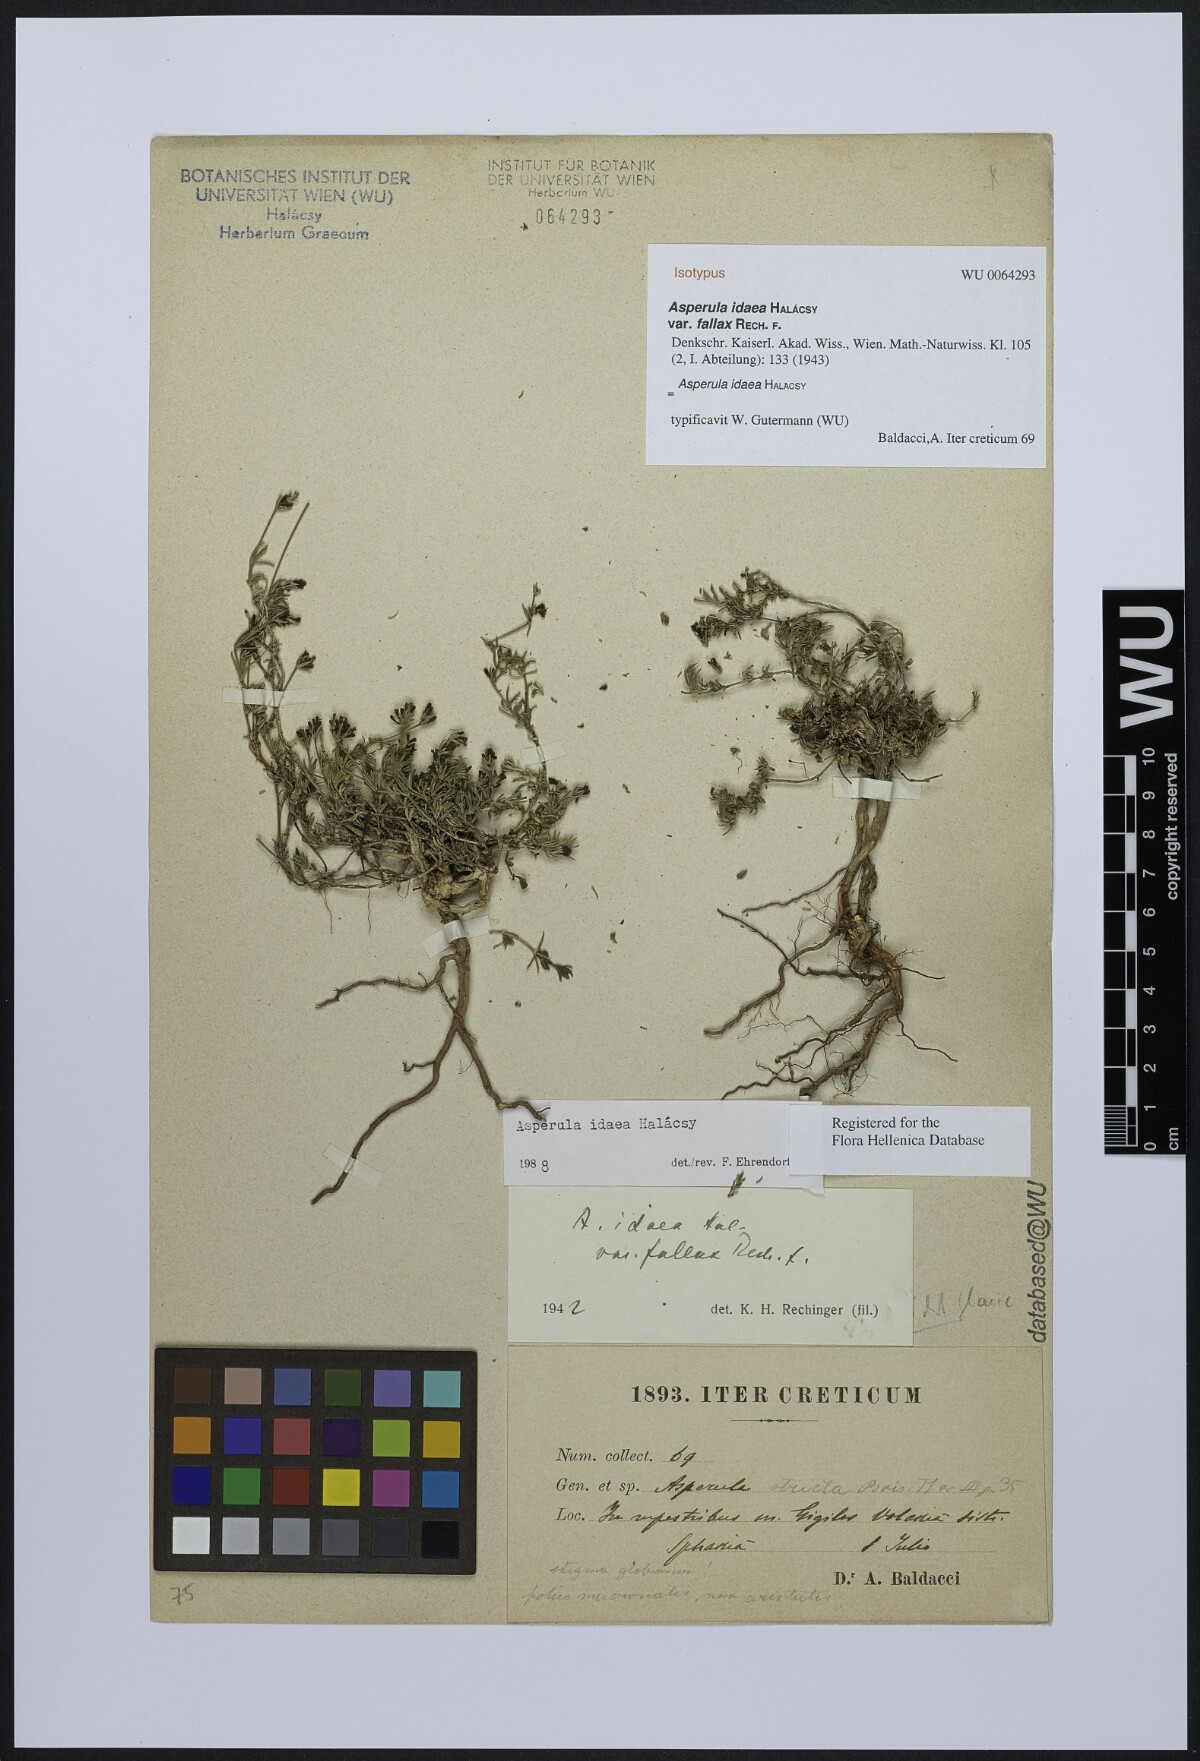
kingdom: Plantae
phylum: Tracheophyta
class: Magnoliopsida
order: Gentianales
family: Rubiaceae
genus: Cynanchica
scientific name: Cynanchica idaea
